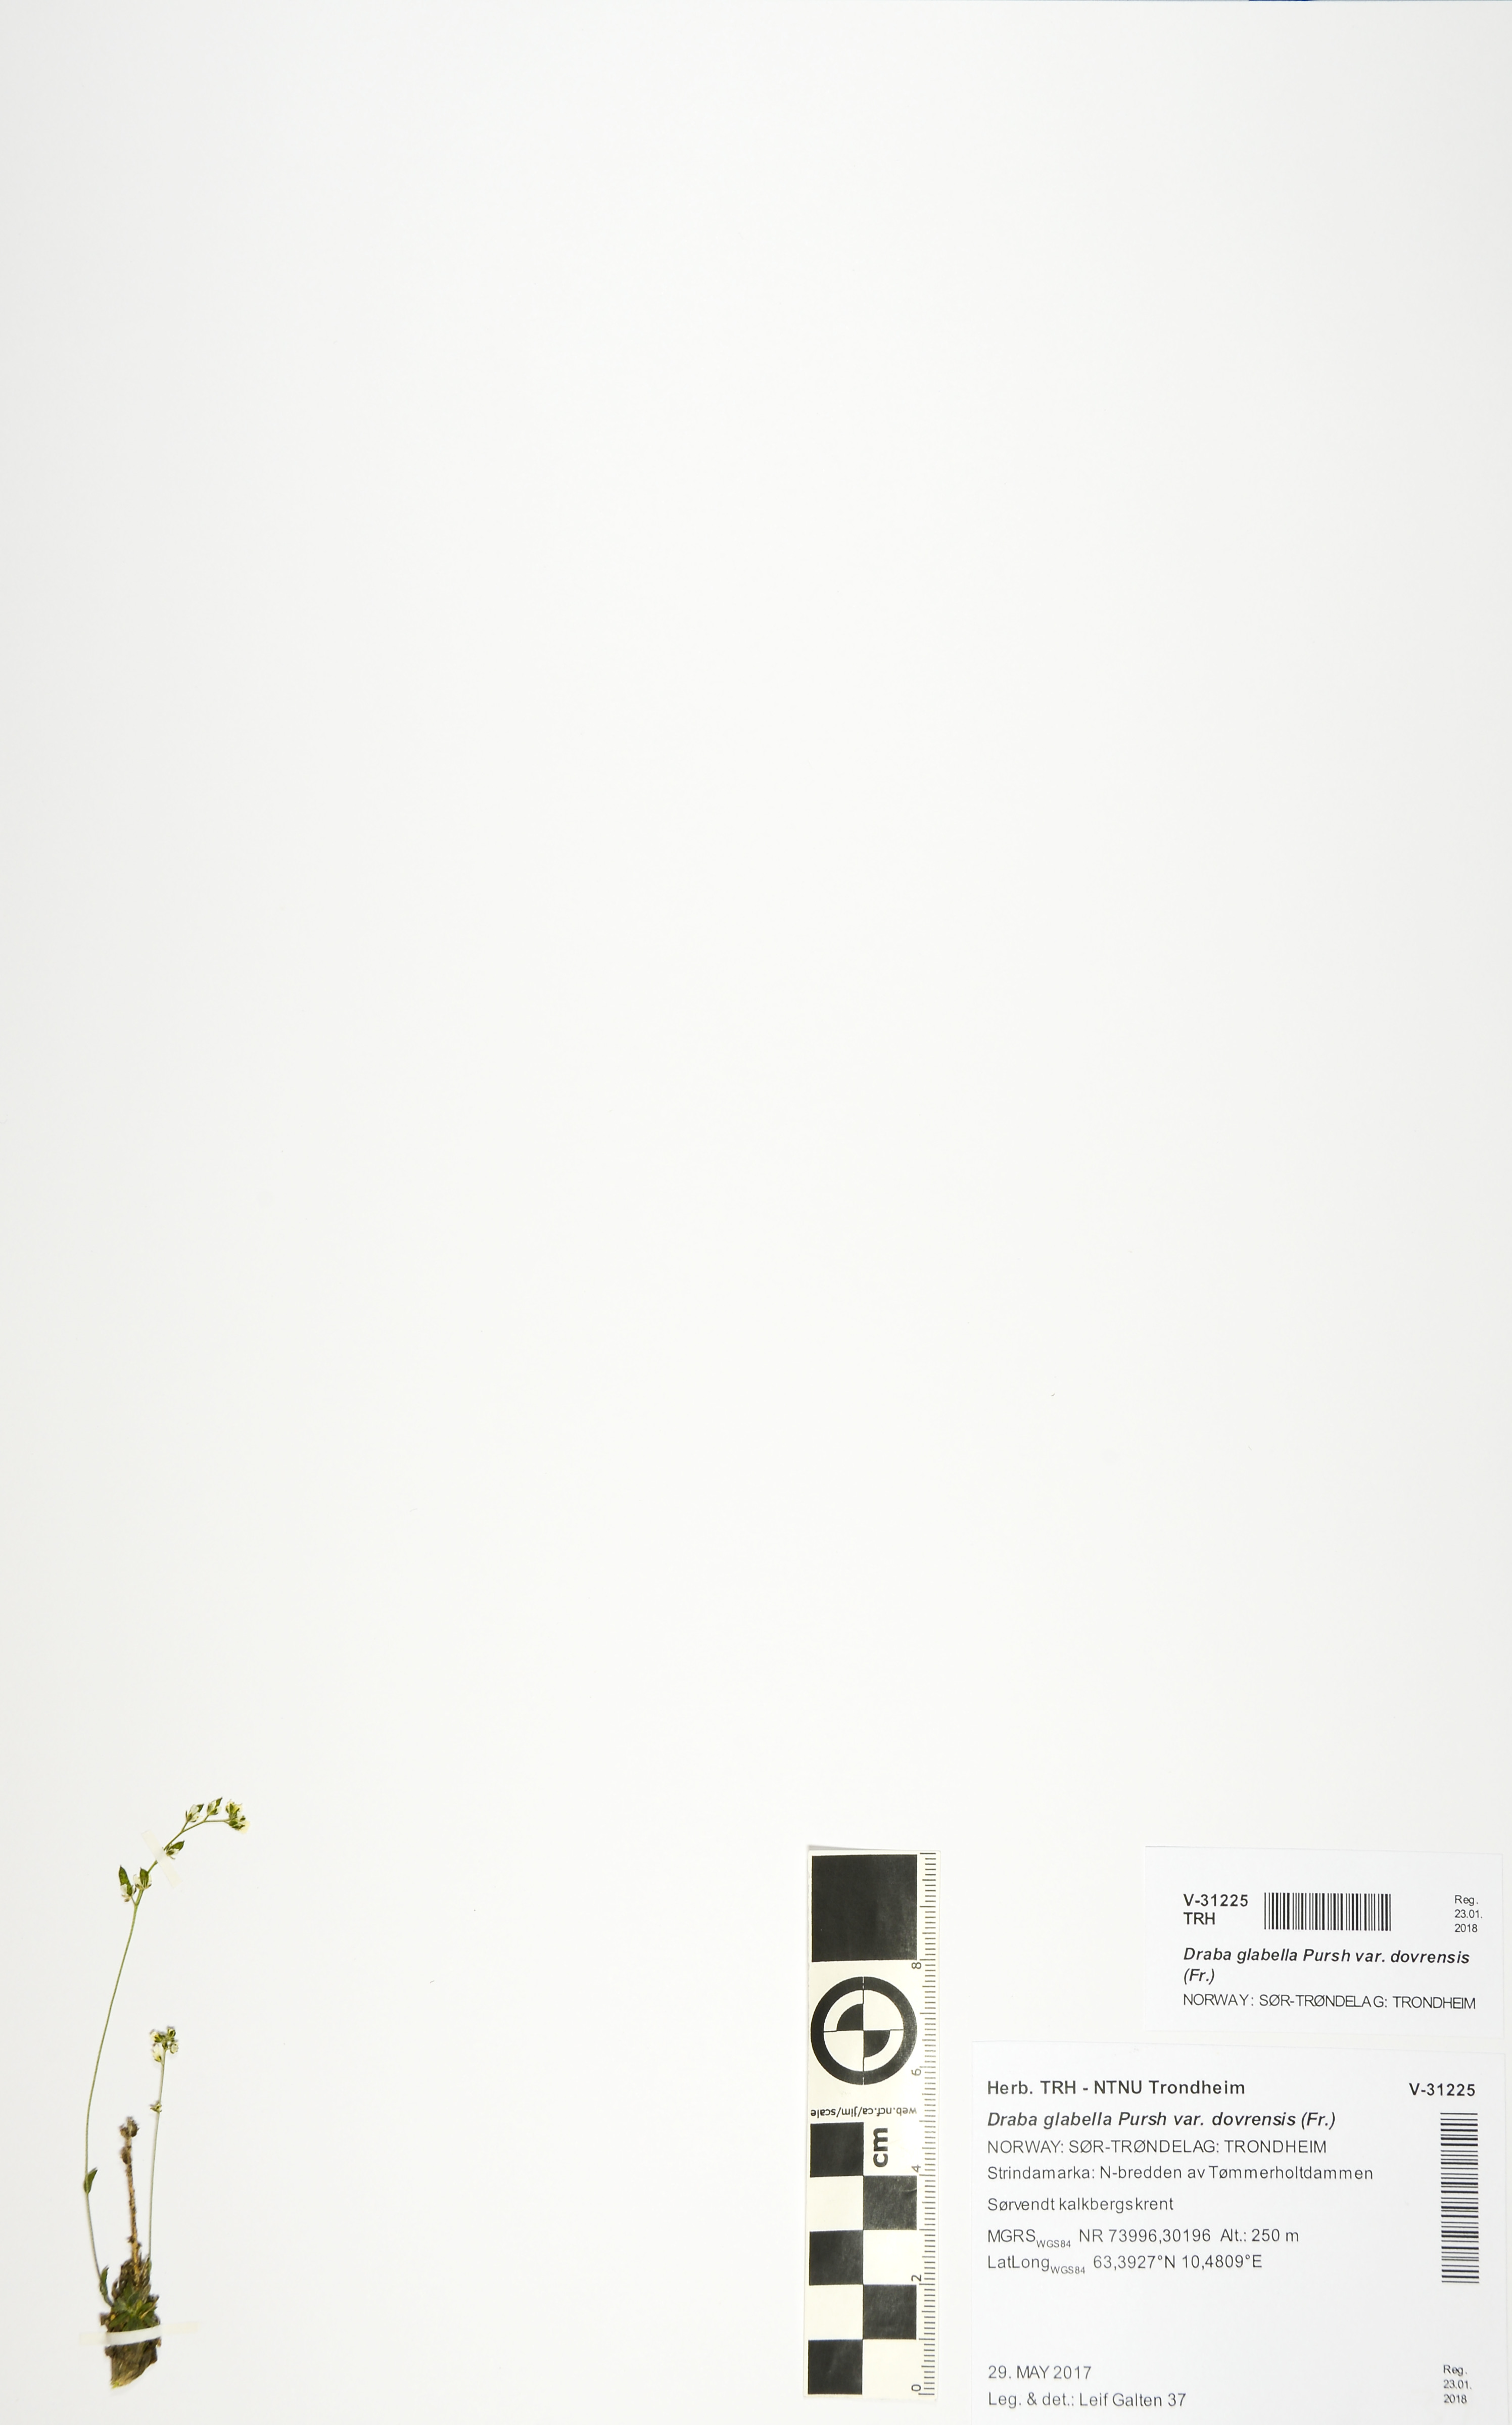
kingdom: Plantae
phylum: Tracheophyta
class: Magnoliopsida
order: Brassicales
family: Brassicaceae
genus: Draba
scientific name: Draba glabella
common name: Glaucous draba
